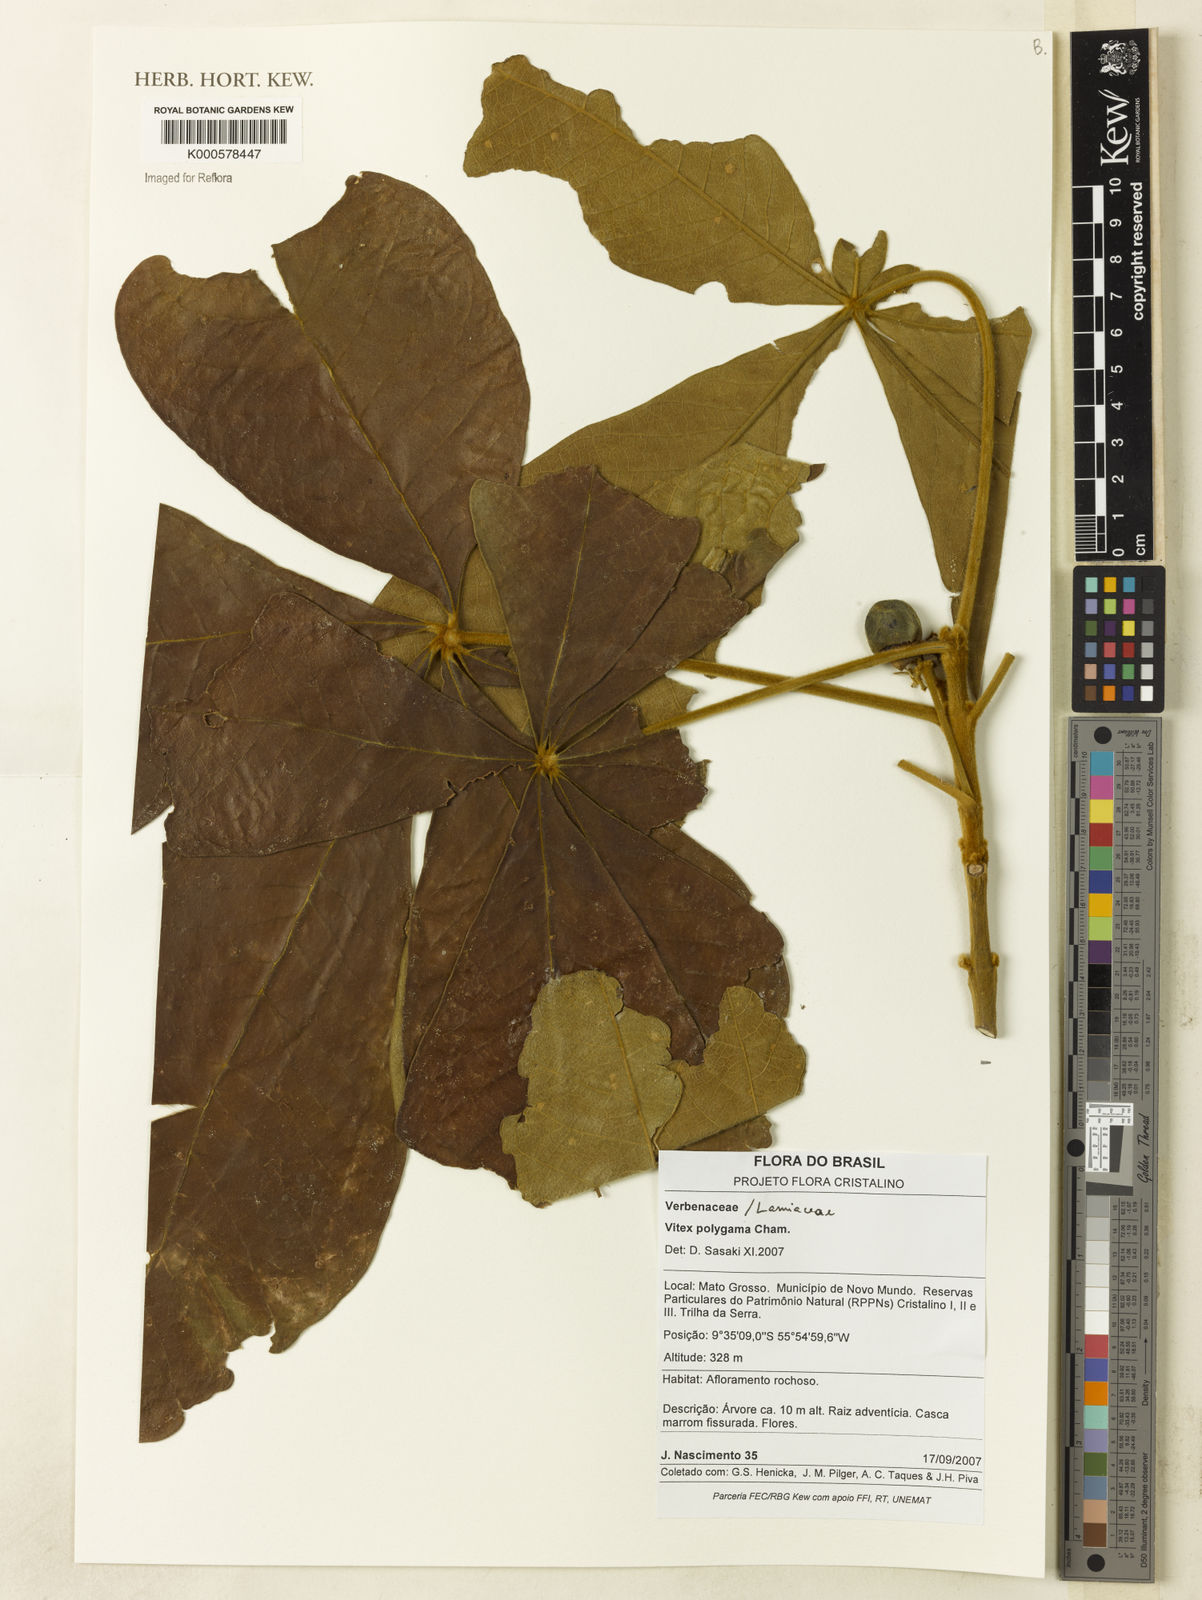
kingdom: Plantae
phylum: Tracheophyta
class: Magnoliopsida
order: Lamiales
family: Lamiaceae
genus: Vitex
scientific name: Vitex polygama
